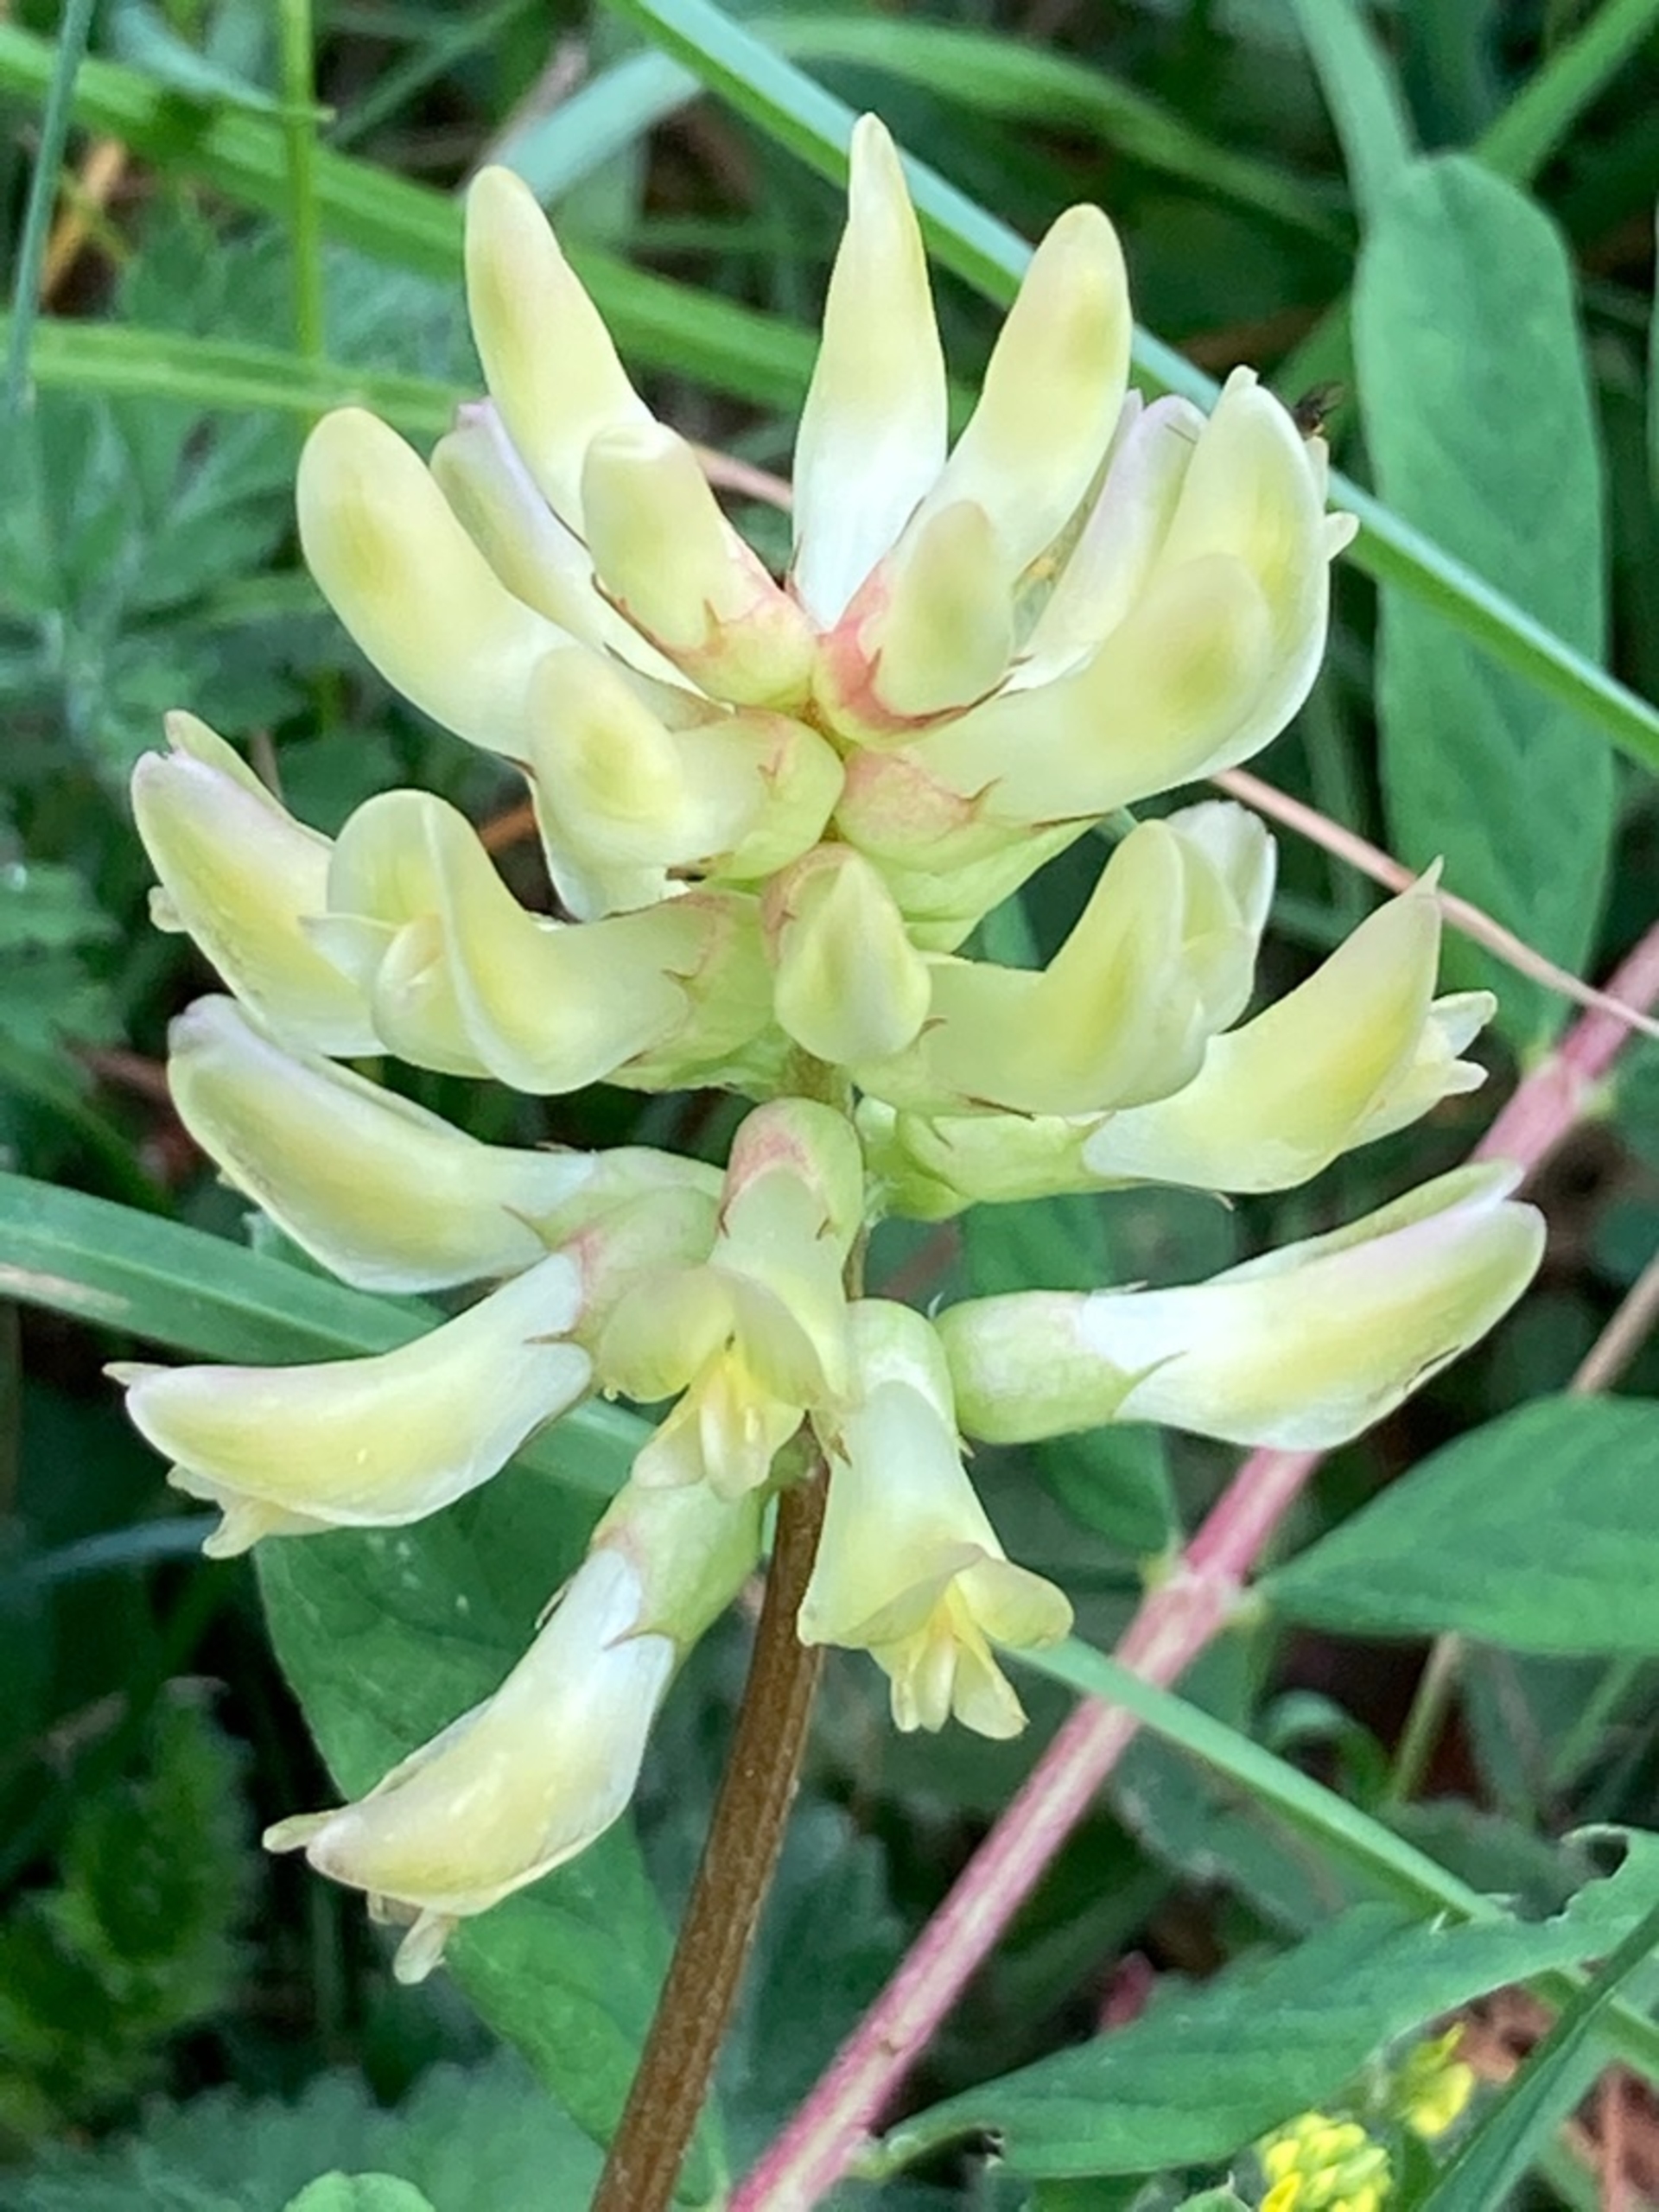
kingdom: Plantae
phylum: Tracheophyta
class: Magnoliopsida
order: Fabales
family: Fabaceae
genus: Astragalus
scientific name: Astragalus glycyphyllos
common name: Sød astragel
